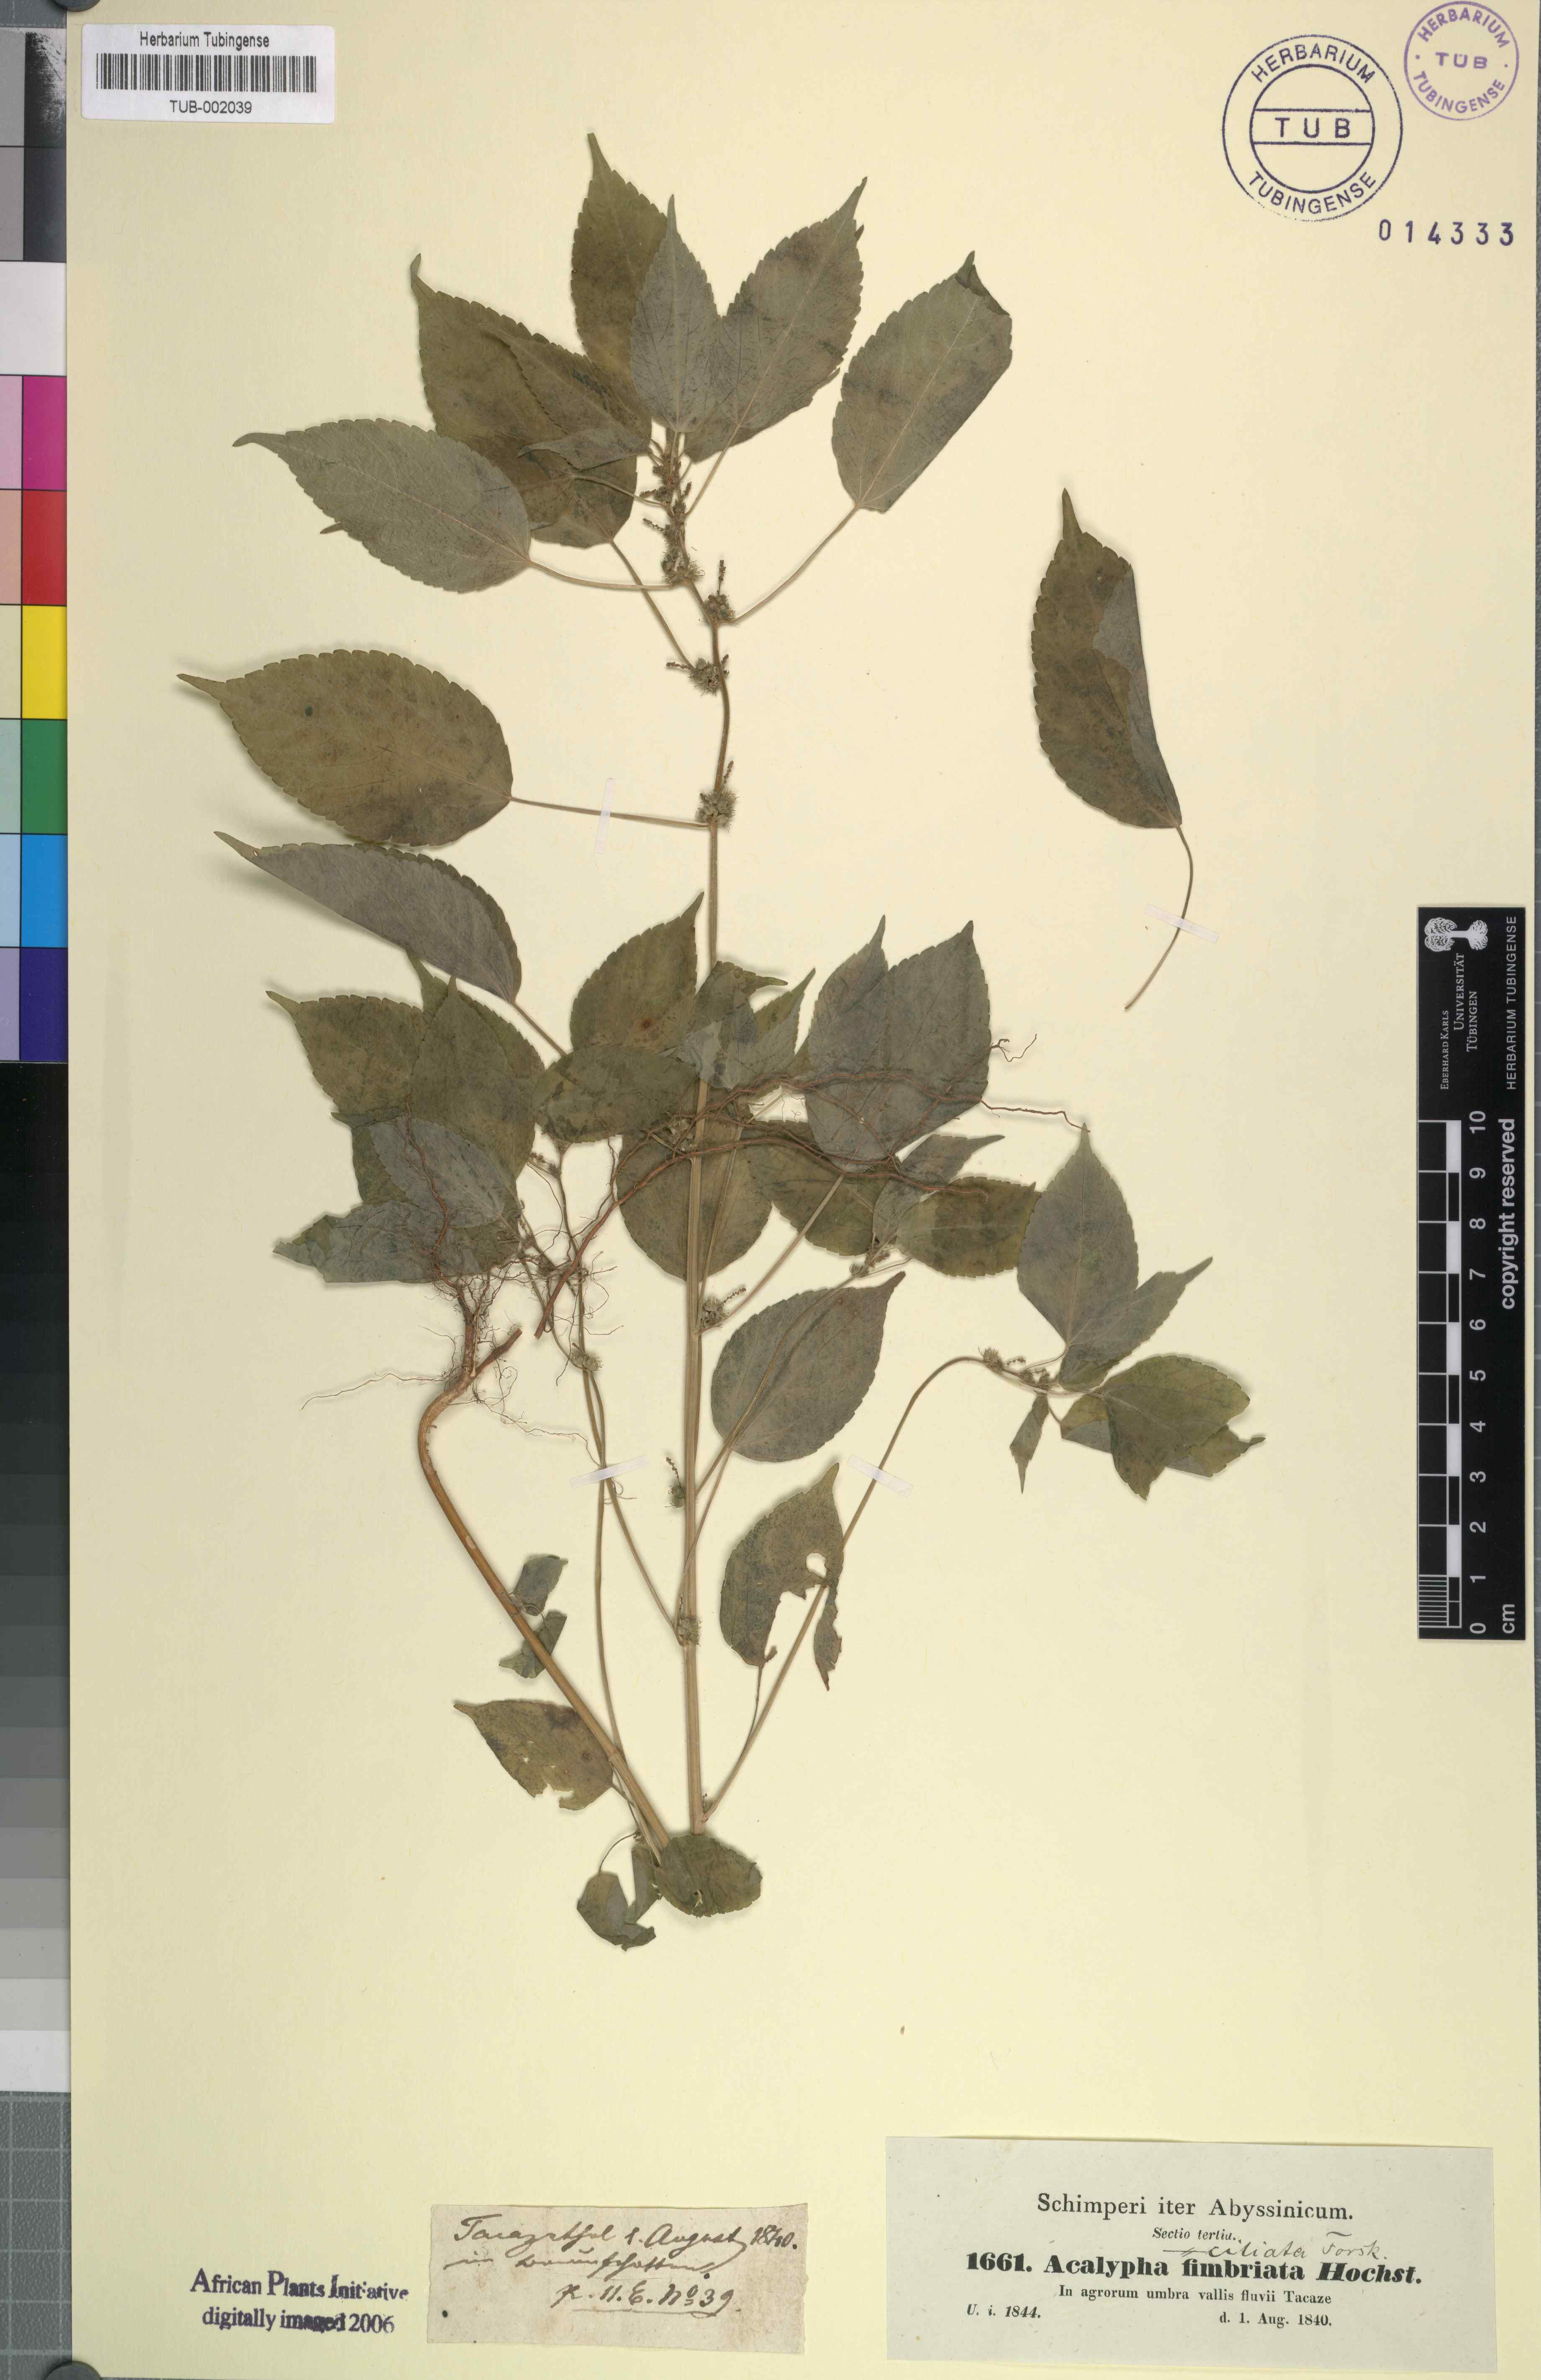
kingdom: Plantae
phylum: Tracheophyta
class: Magnoliopsida
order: Malpighiales
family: Euphorbiaceae
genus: Acalypha
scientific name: Acalypha fimbriata
